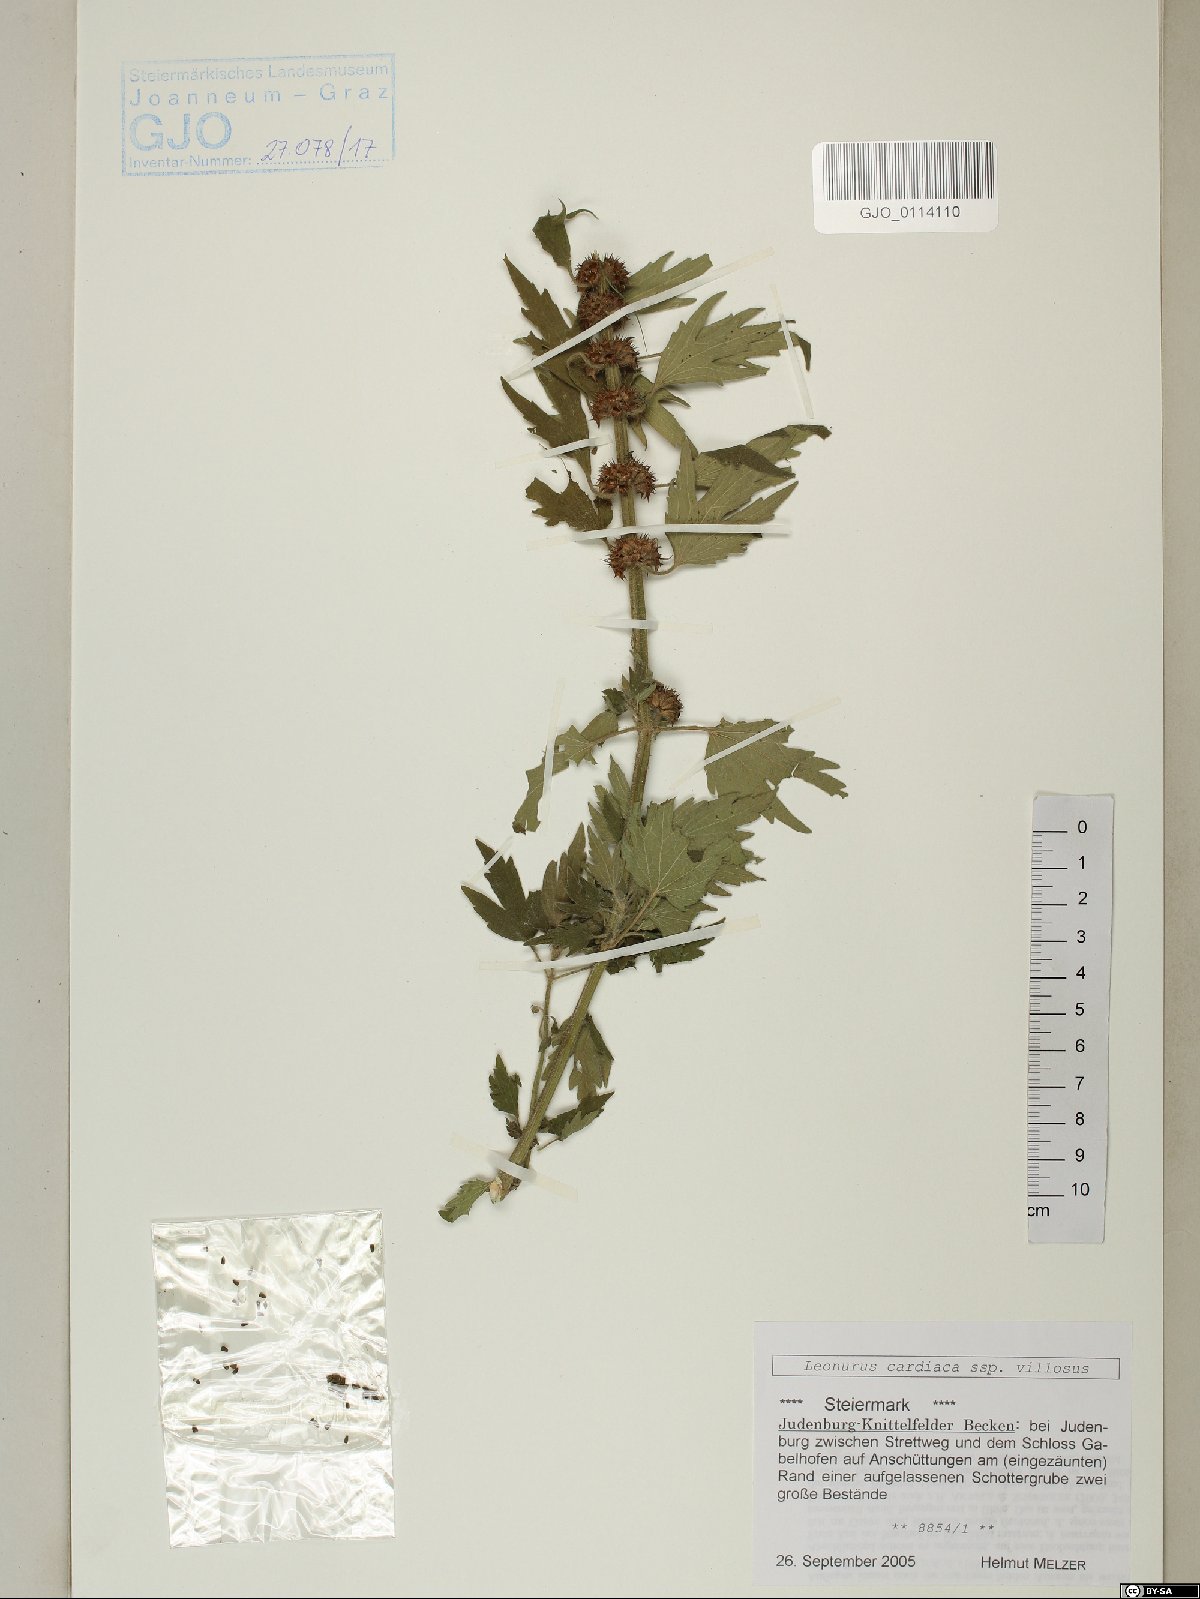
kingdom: Plantae
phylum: Tracheophyta
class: Magnoliopsida
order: Lamiales
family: Lamiaceae
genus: Leonurus
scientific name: Leonurus quinquelobatus
